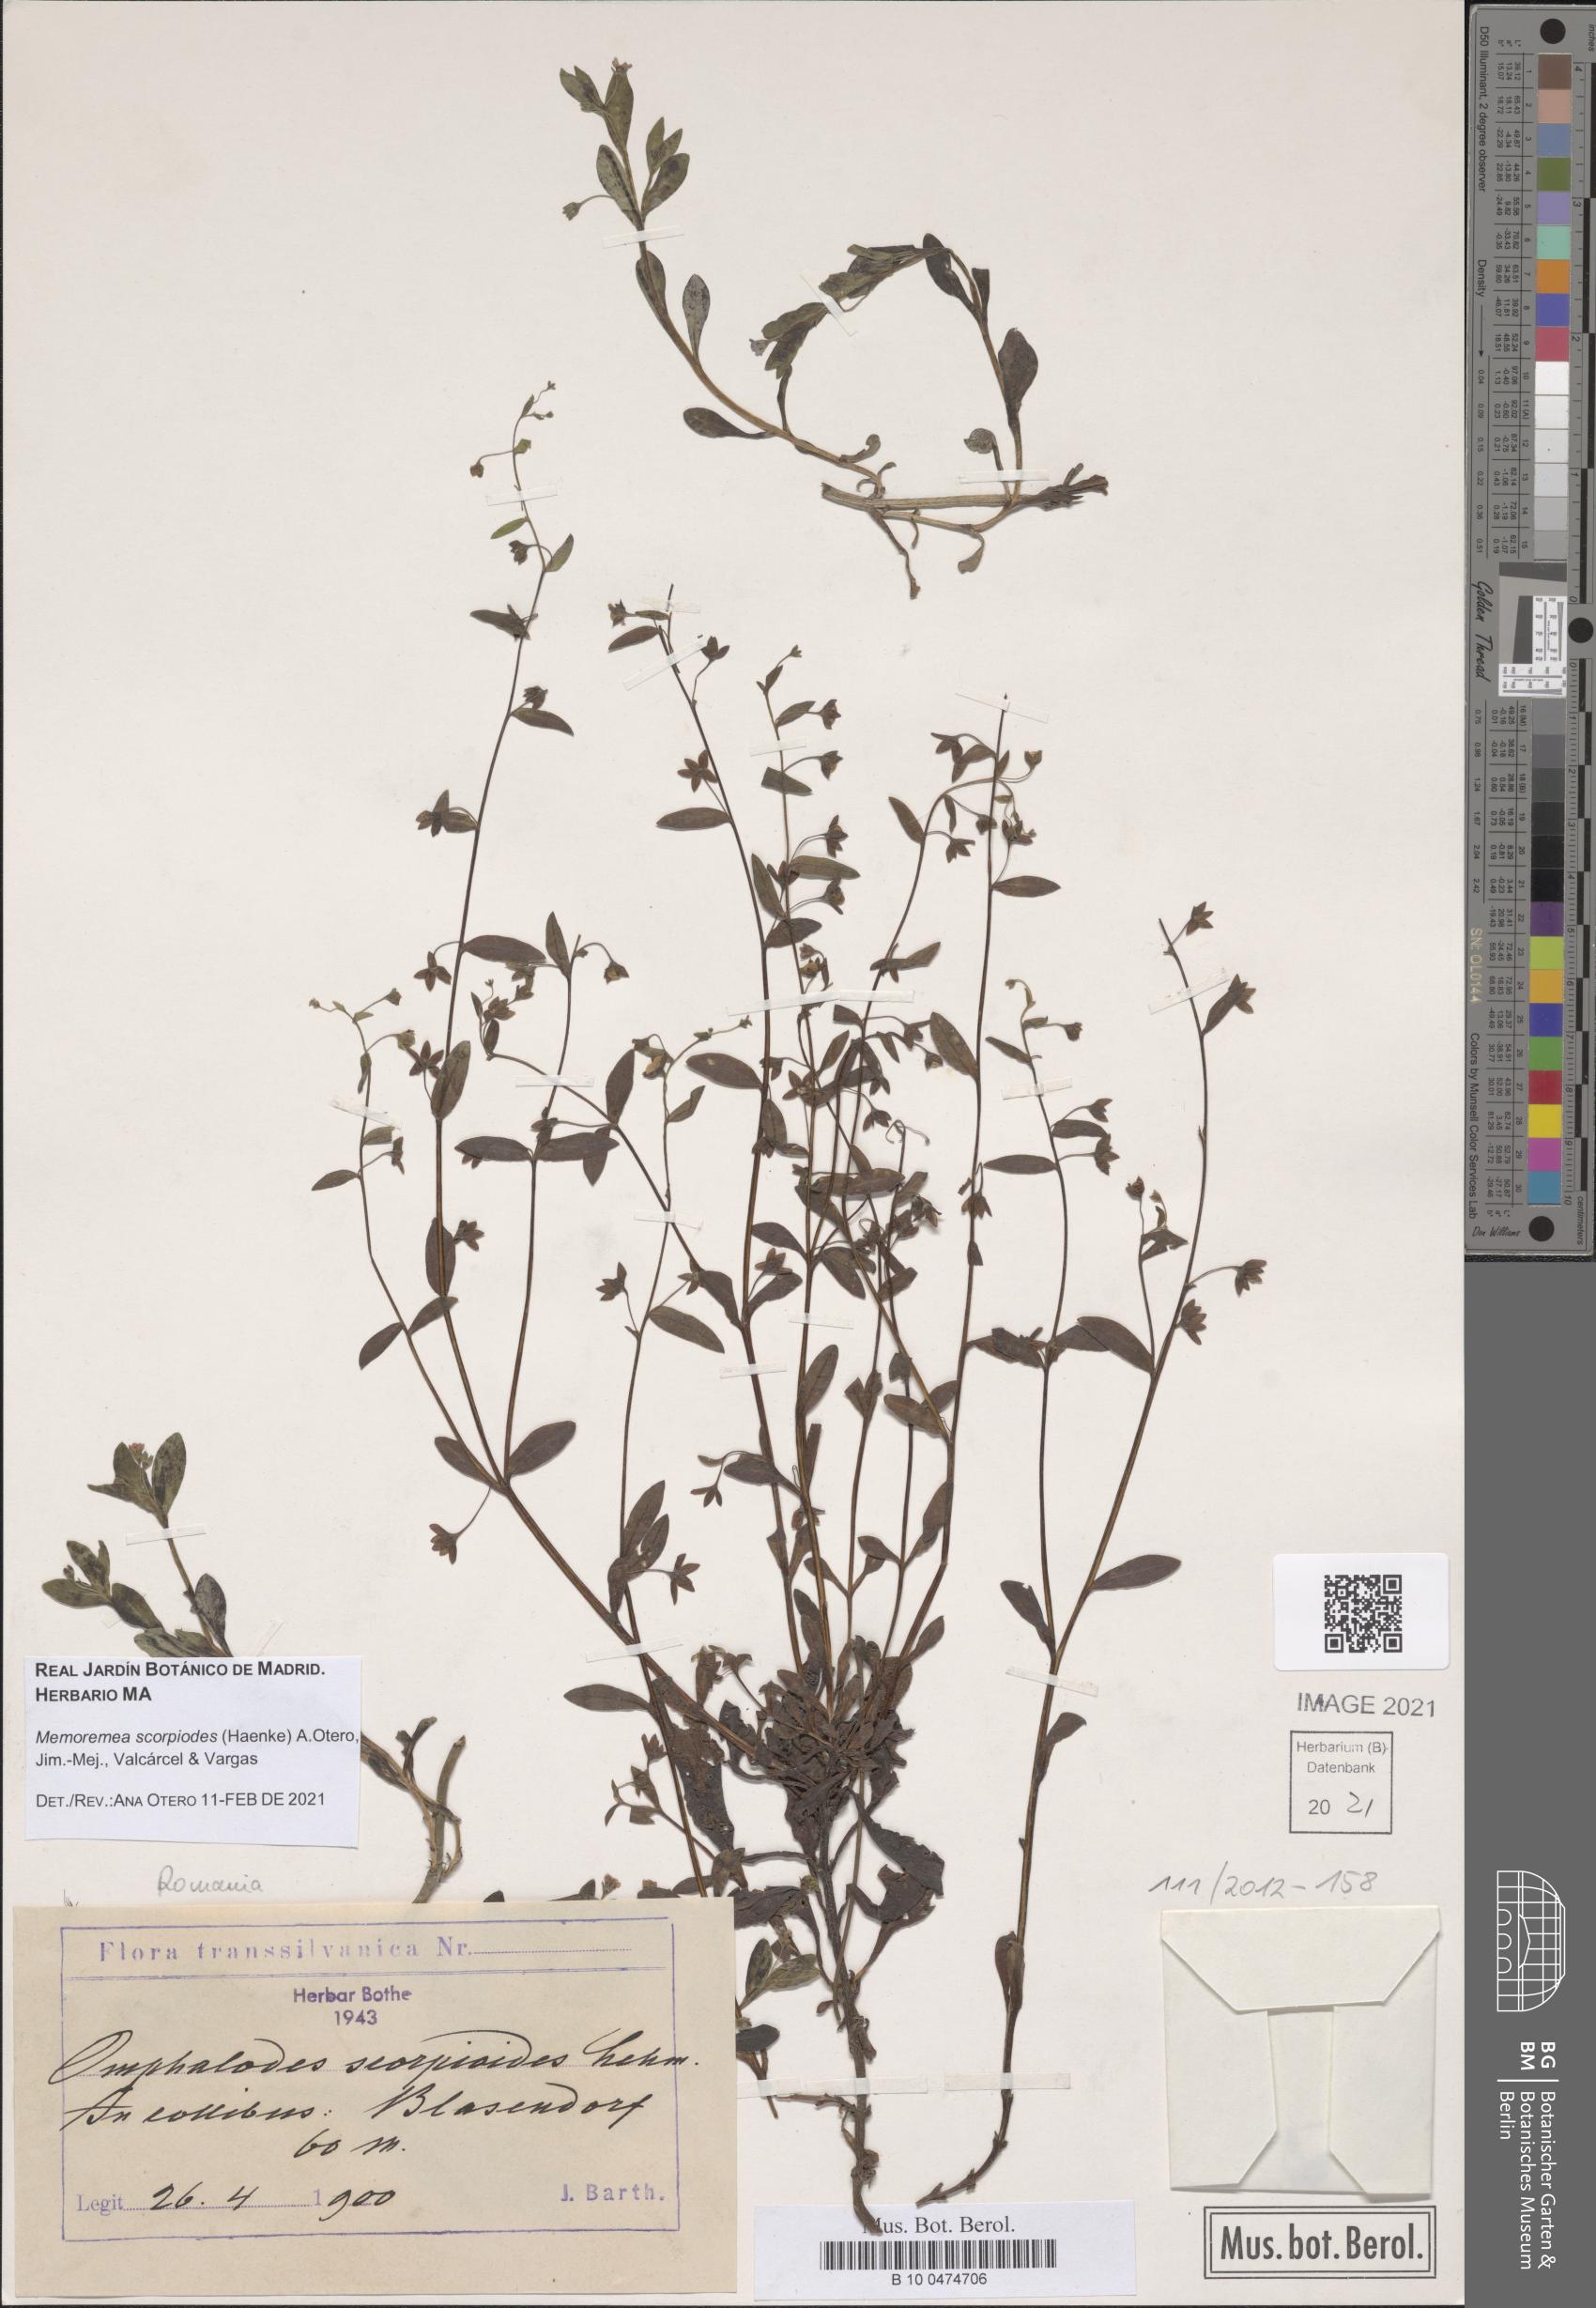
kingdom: Plantae
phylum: Tracheophyta
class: Magnoliopsida
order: Boraginales
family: Boraginaceae
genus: Memoremea
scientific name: Memoremea scorpioides
